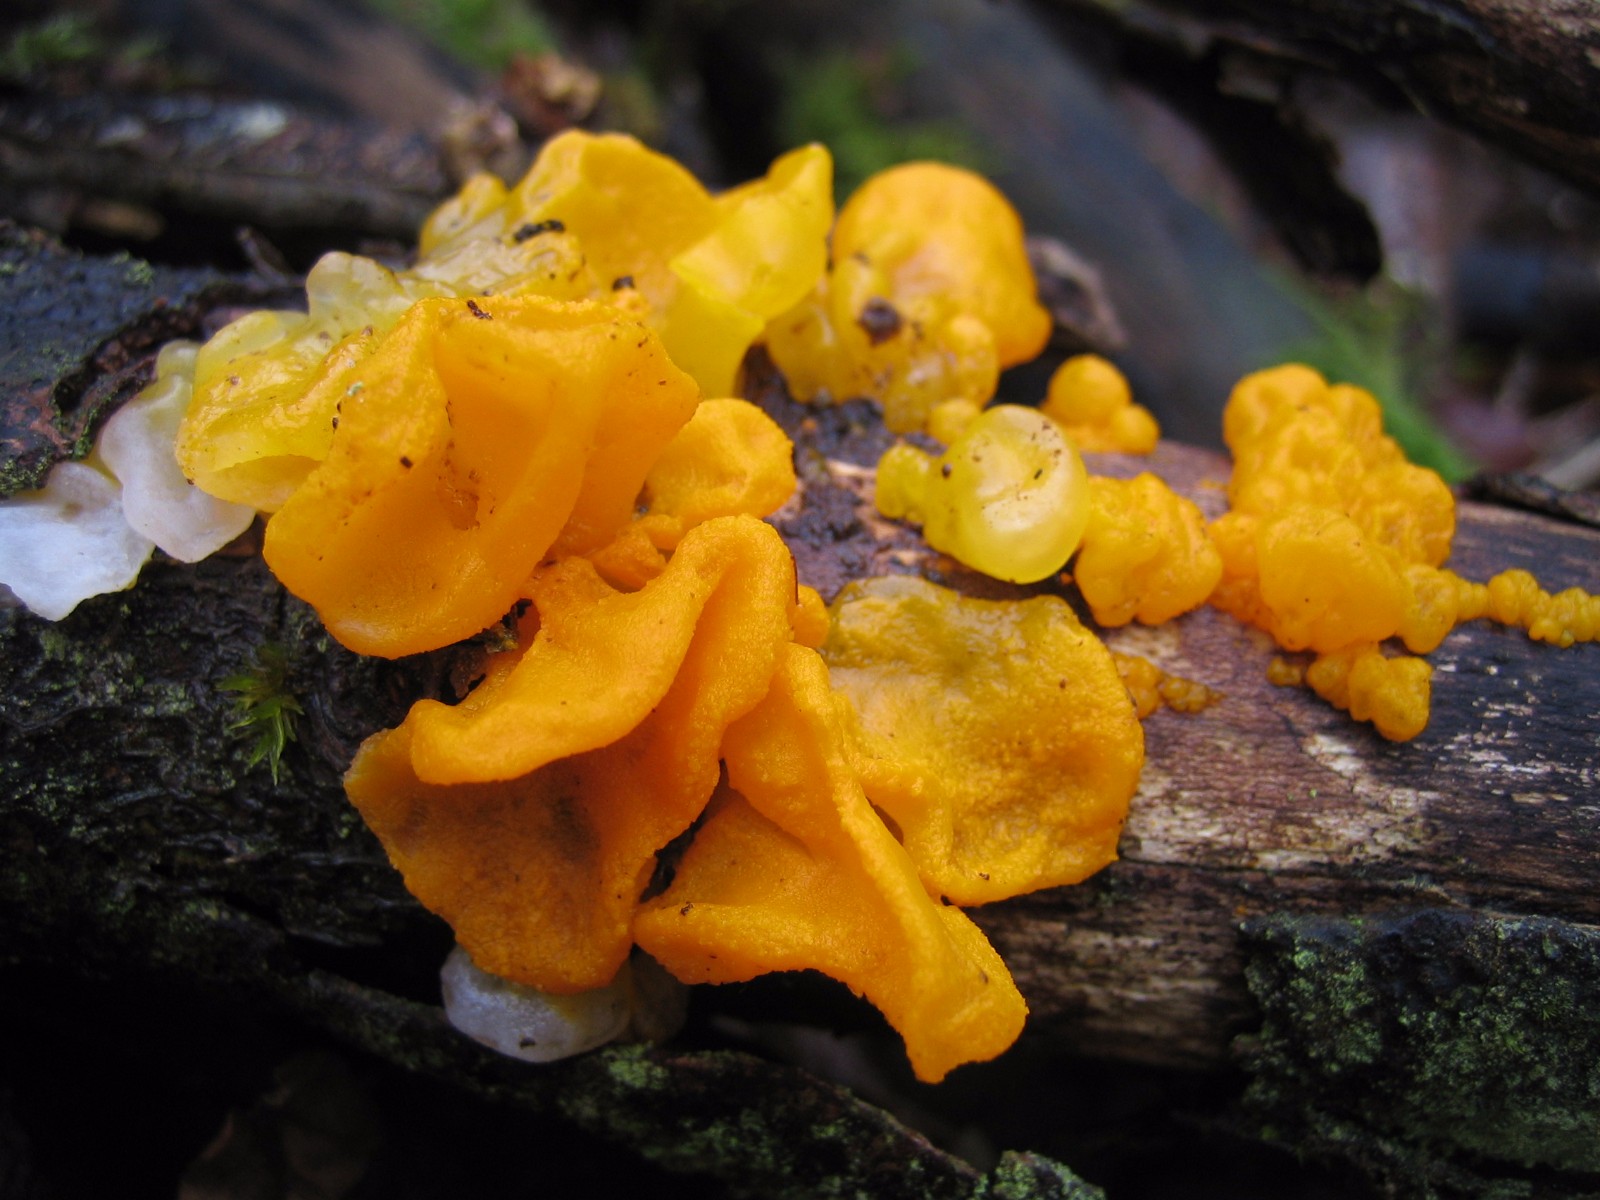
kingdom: Fungi
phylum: Basidiomycota
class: Tremellomycetes
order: Tremellales
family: Tremellaceae
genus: Tremella
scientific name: Tremella mesenterica
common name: gul bævresvamp
